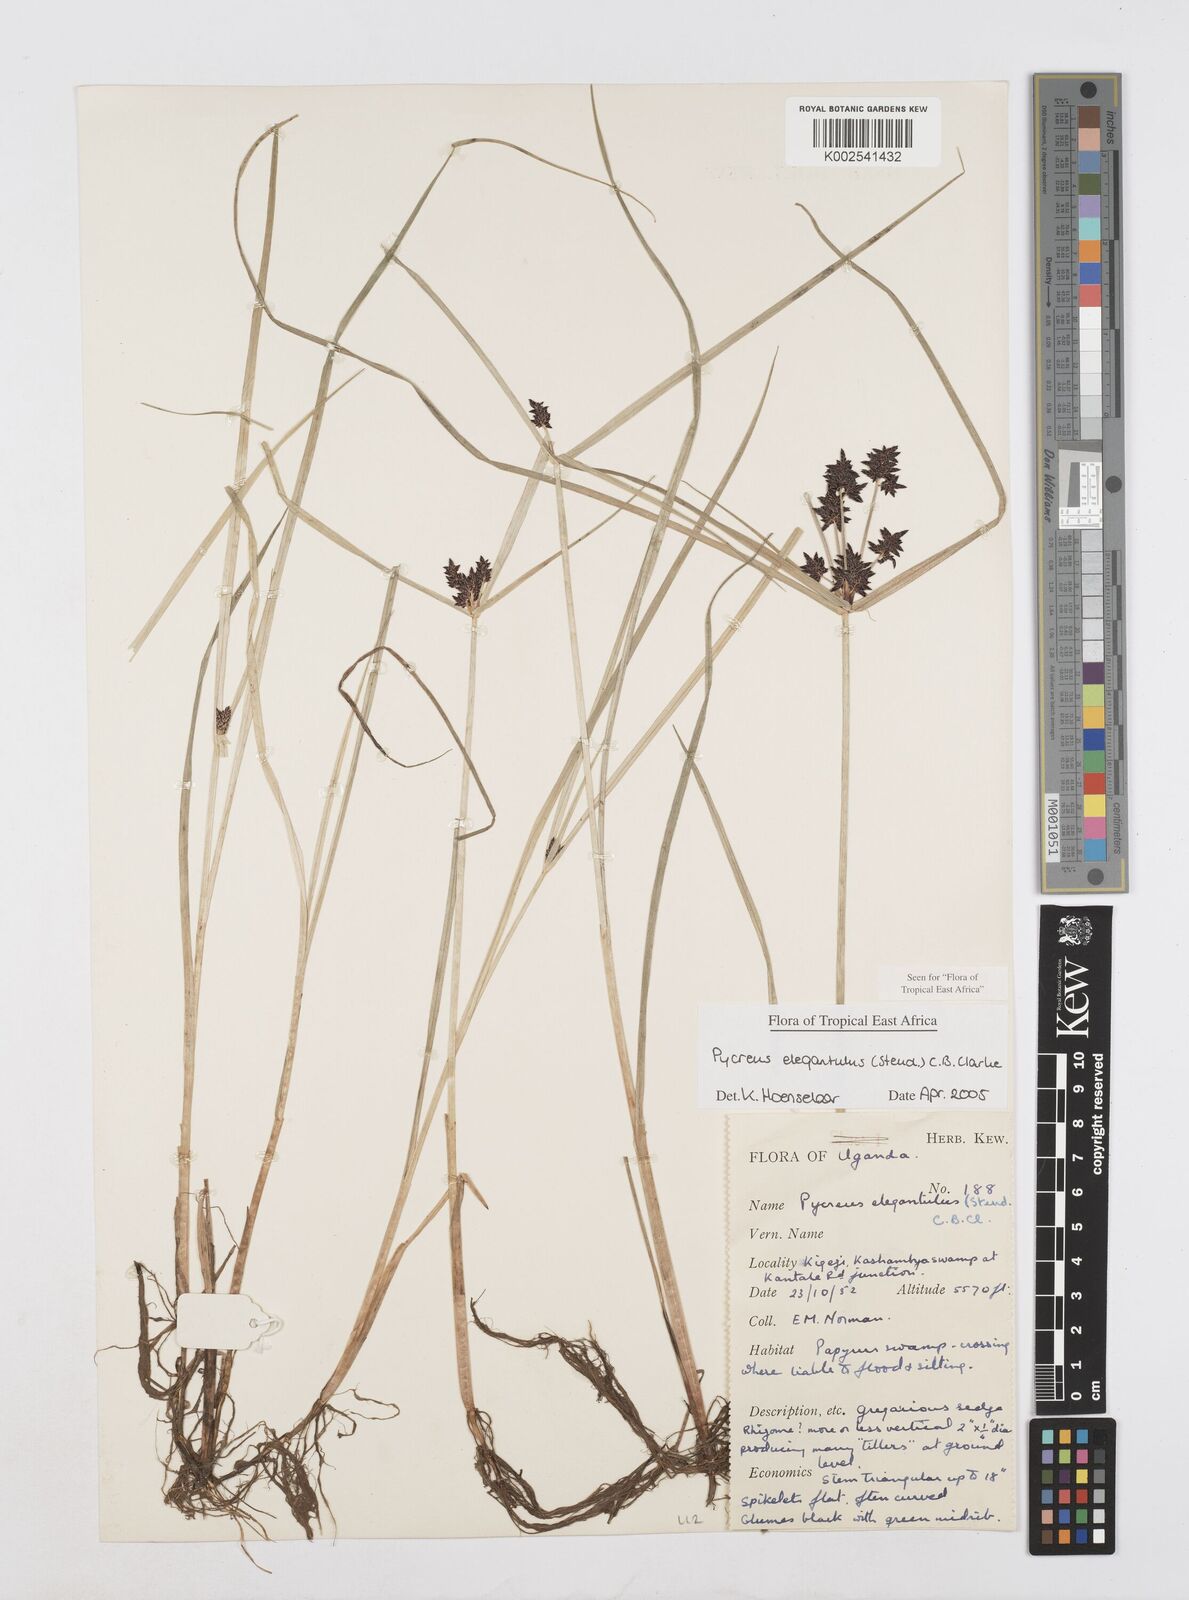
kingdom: Plantae
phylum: Tracheophyta
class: Liliopsida
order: Poales
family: Cyperaceae
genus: Cyperus
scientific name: Cyperus elegantulus
